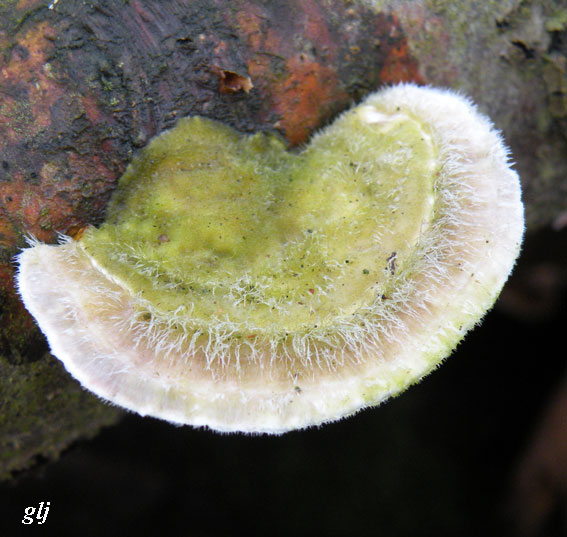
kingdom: Fungi
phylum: Basidiomycota
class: Agaricomycetes
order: Polyporales
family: Polyporaceae
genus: Trametes
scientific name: Trametes hirsuta
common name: håret læderporesvamp
